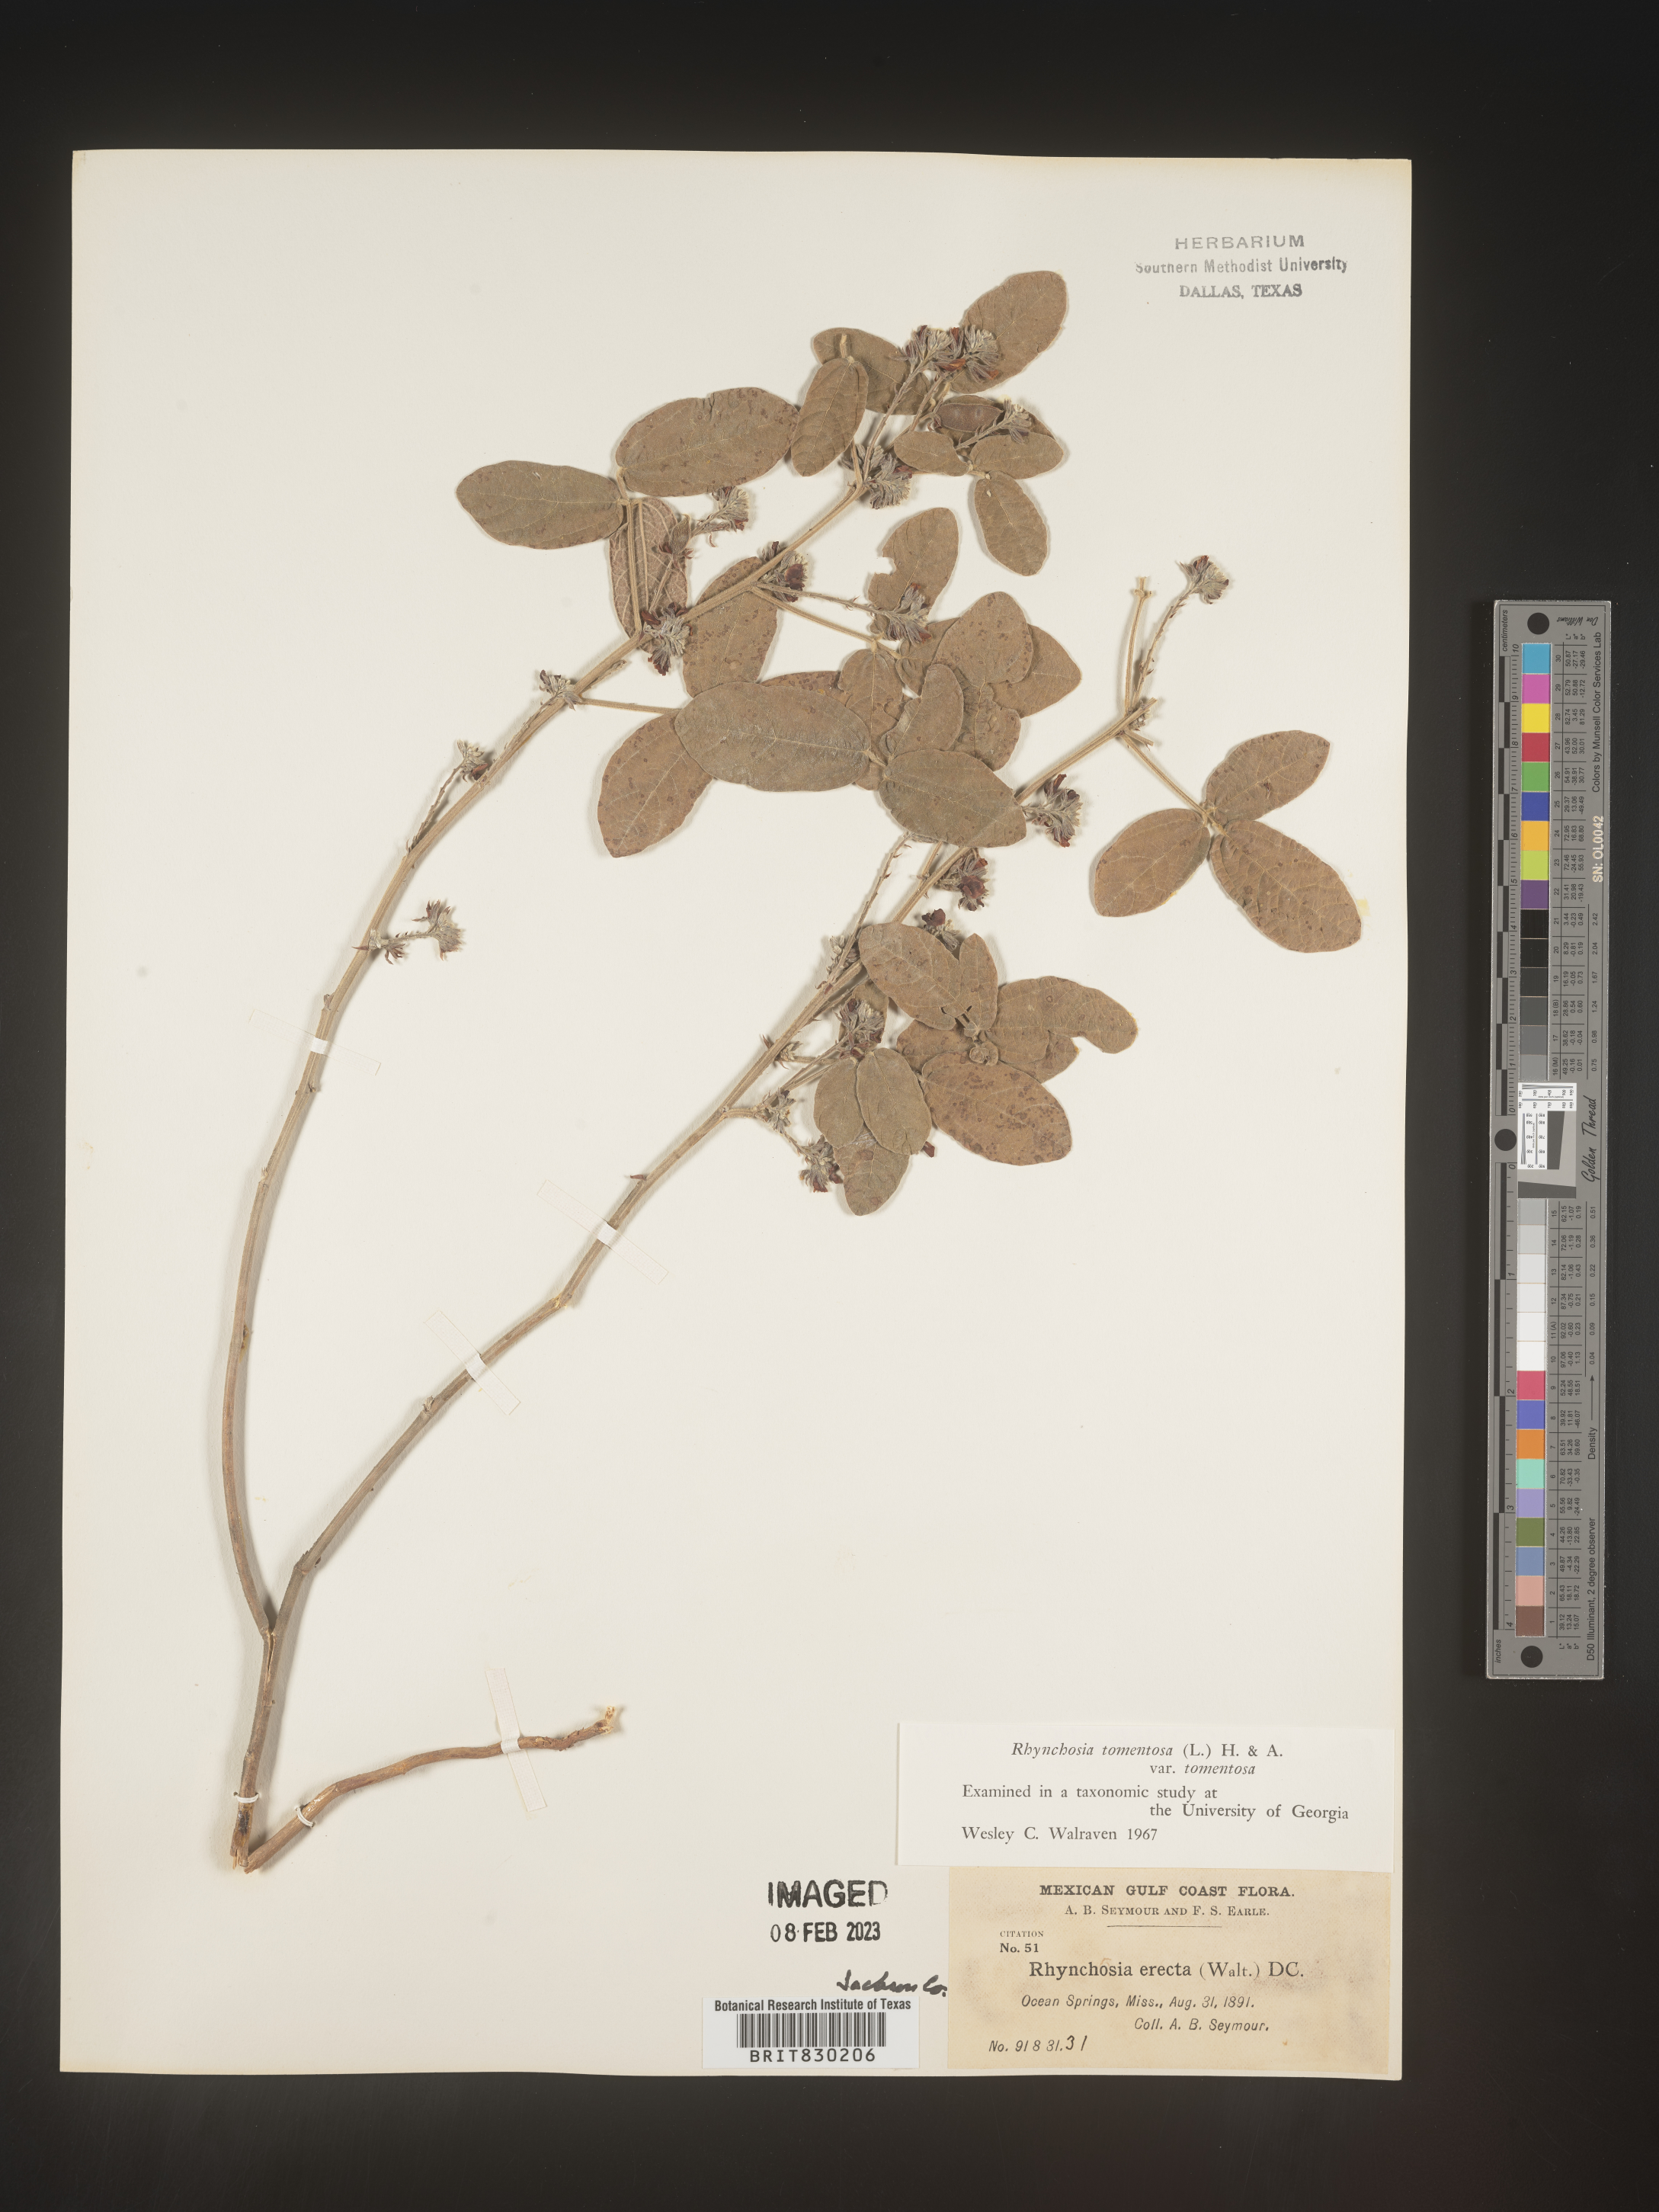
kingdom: Plantae
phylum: Tracheophyta
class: Magnoliopsida
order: Fabales
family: Fabaceae
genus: Rhynchosia
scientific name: Rhynchosia rothii
